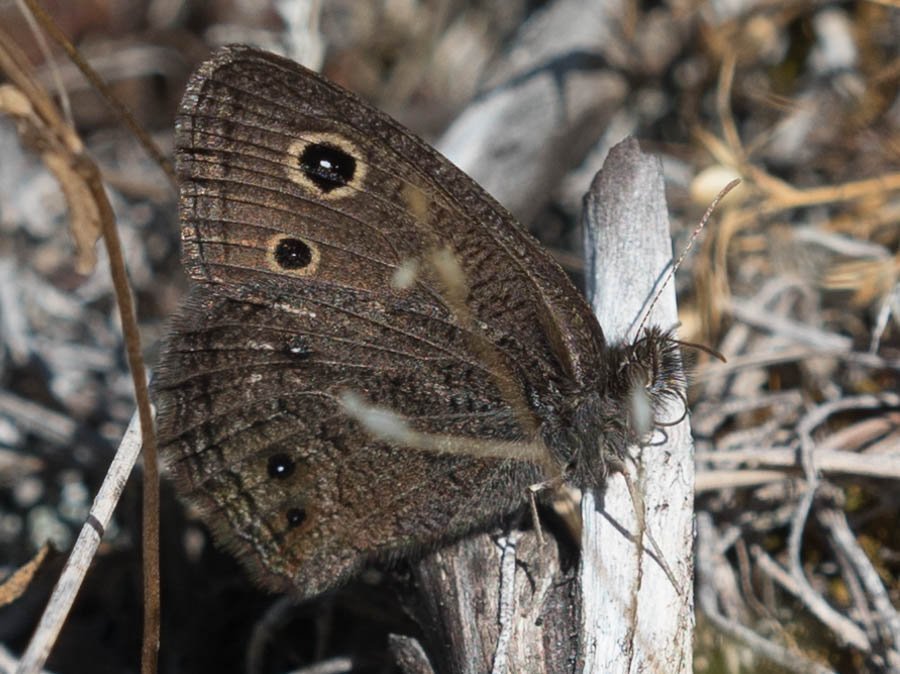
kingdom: Animalia
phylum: Arthropoda
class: Insecta
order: Lepidoptera
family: Nymphalidae
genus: Cercyonis
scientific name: Cercyonis oetus
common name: Small Wood-Nymph
